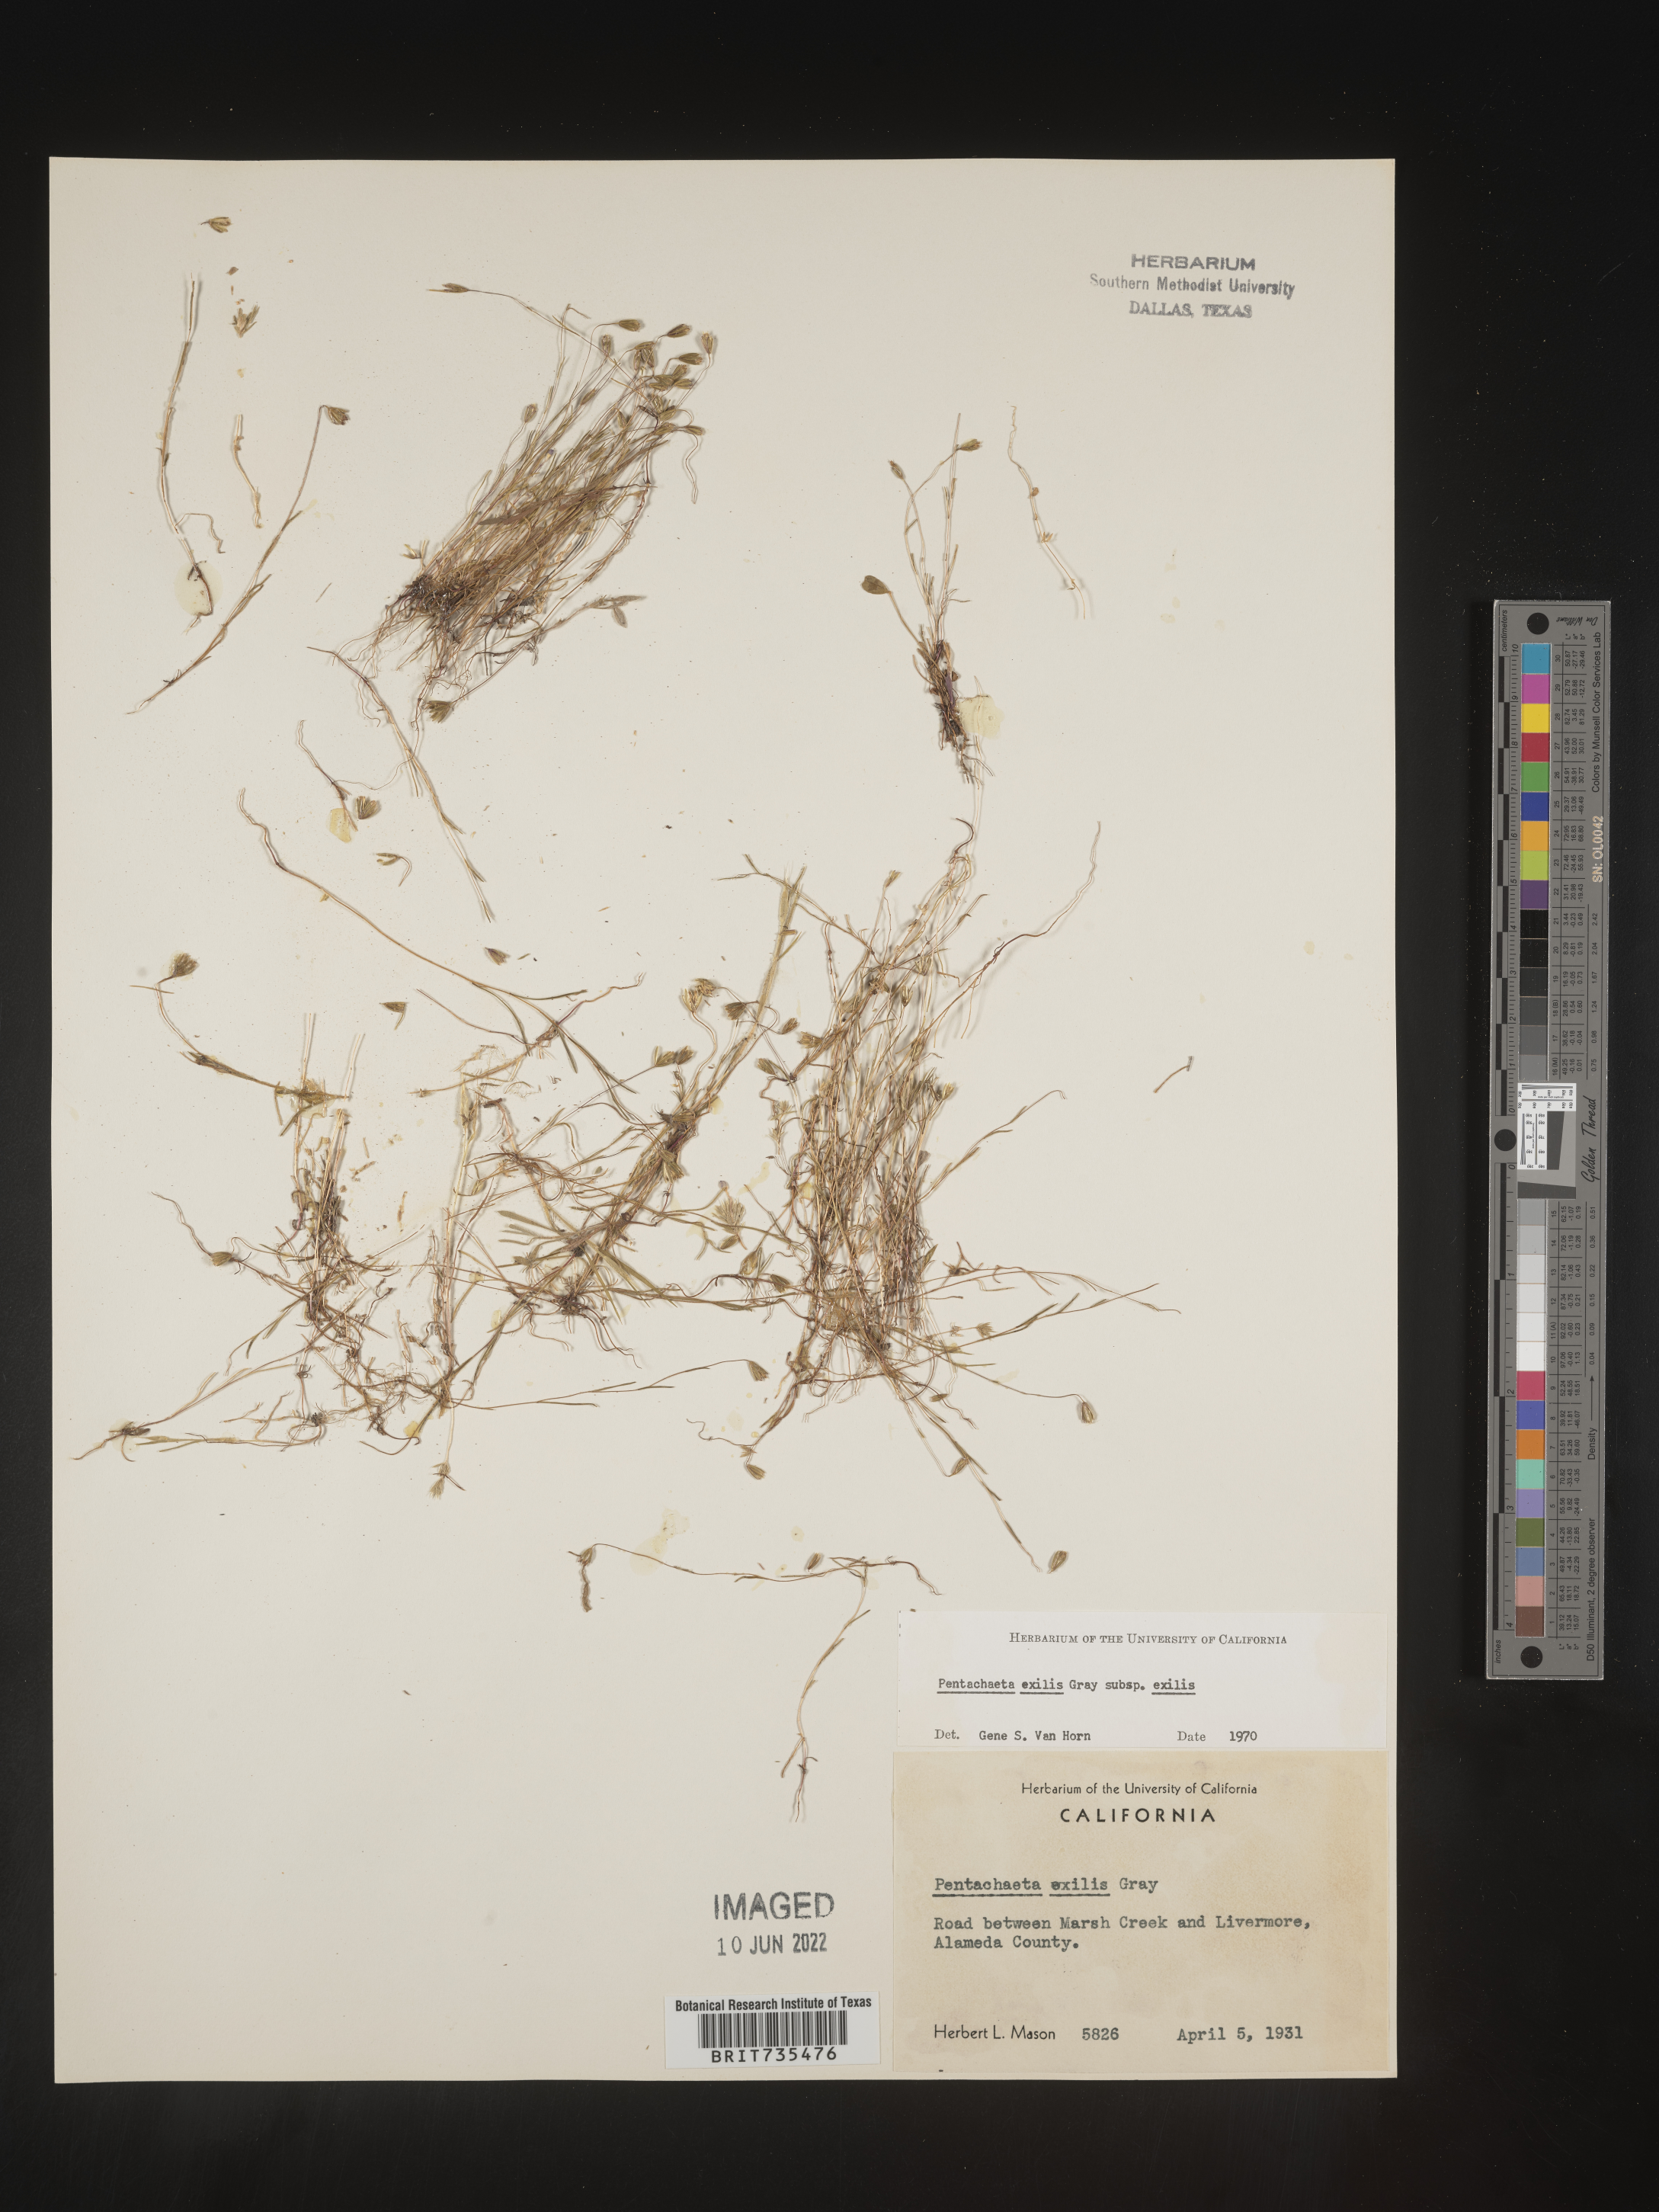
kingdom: Plantae
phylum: Tracheophyta
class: Magnoliopsida
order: Asterales
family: Asteraceae
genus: Pentachaeta
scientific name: Pentachaeta exilis
